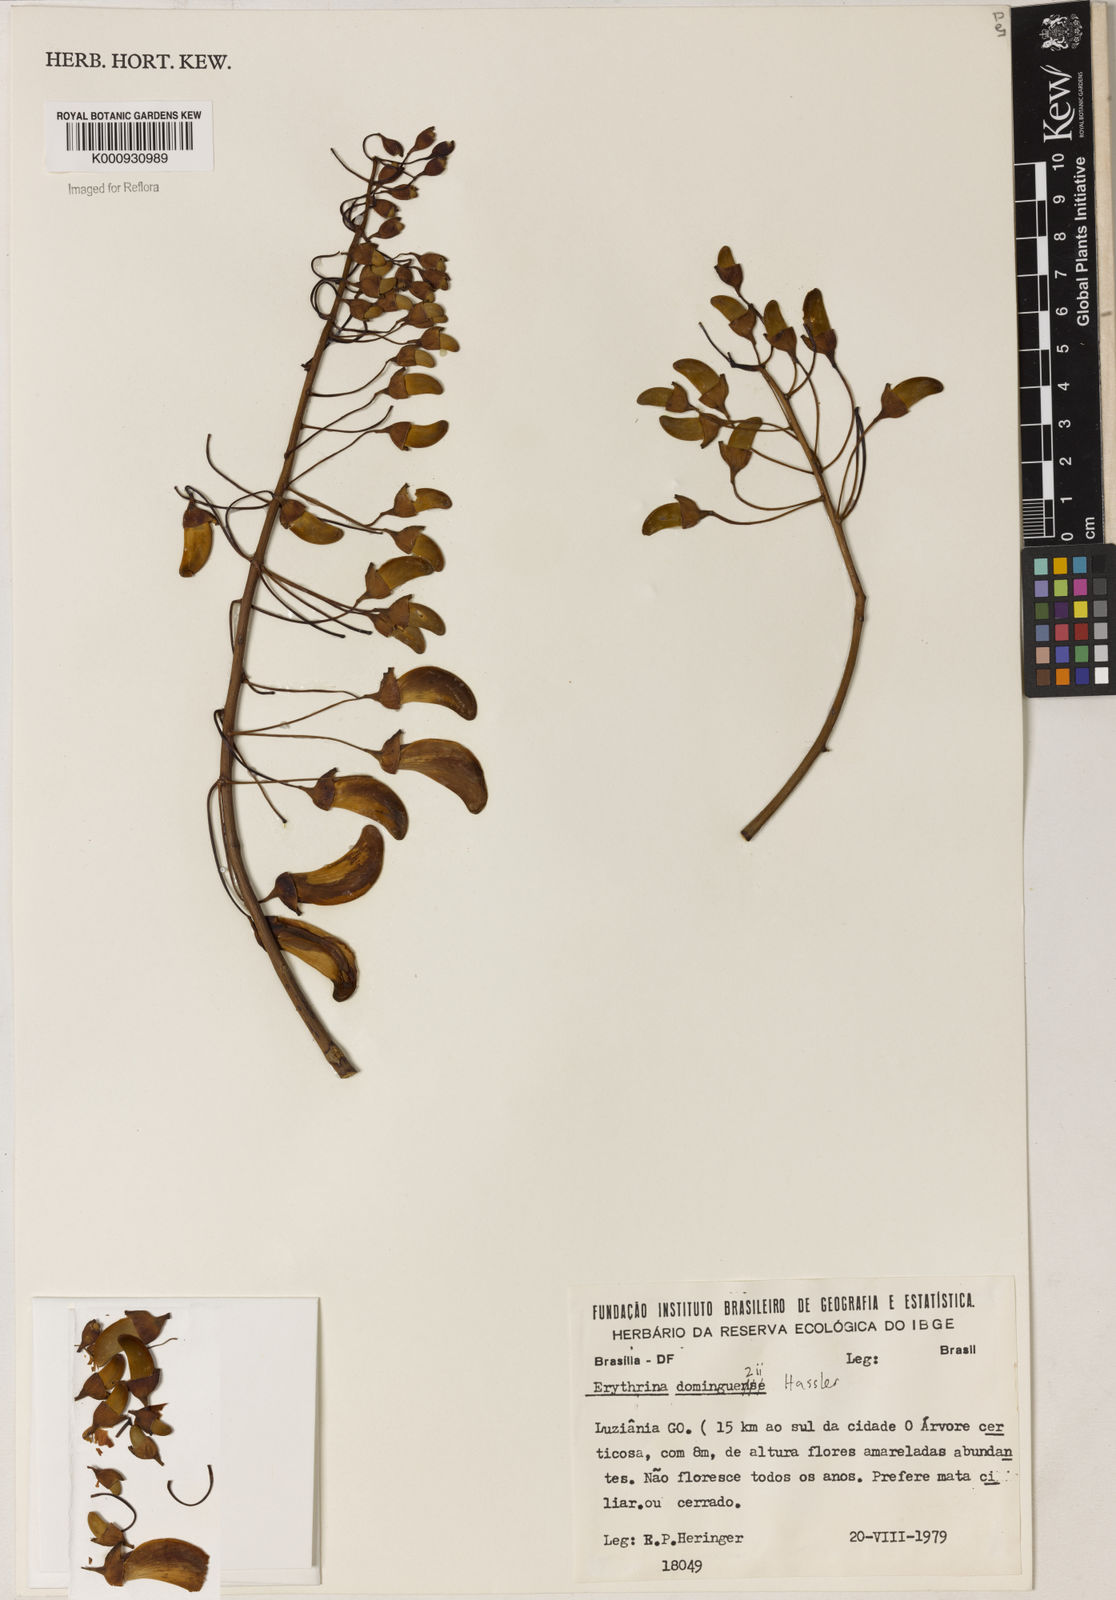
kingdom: Plantae
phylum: Tracheophyta
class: Magnoliopsida
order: Fabales
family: Fabaceae
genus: Erythrina
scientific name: Erythrina mulungu
